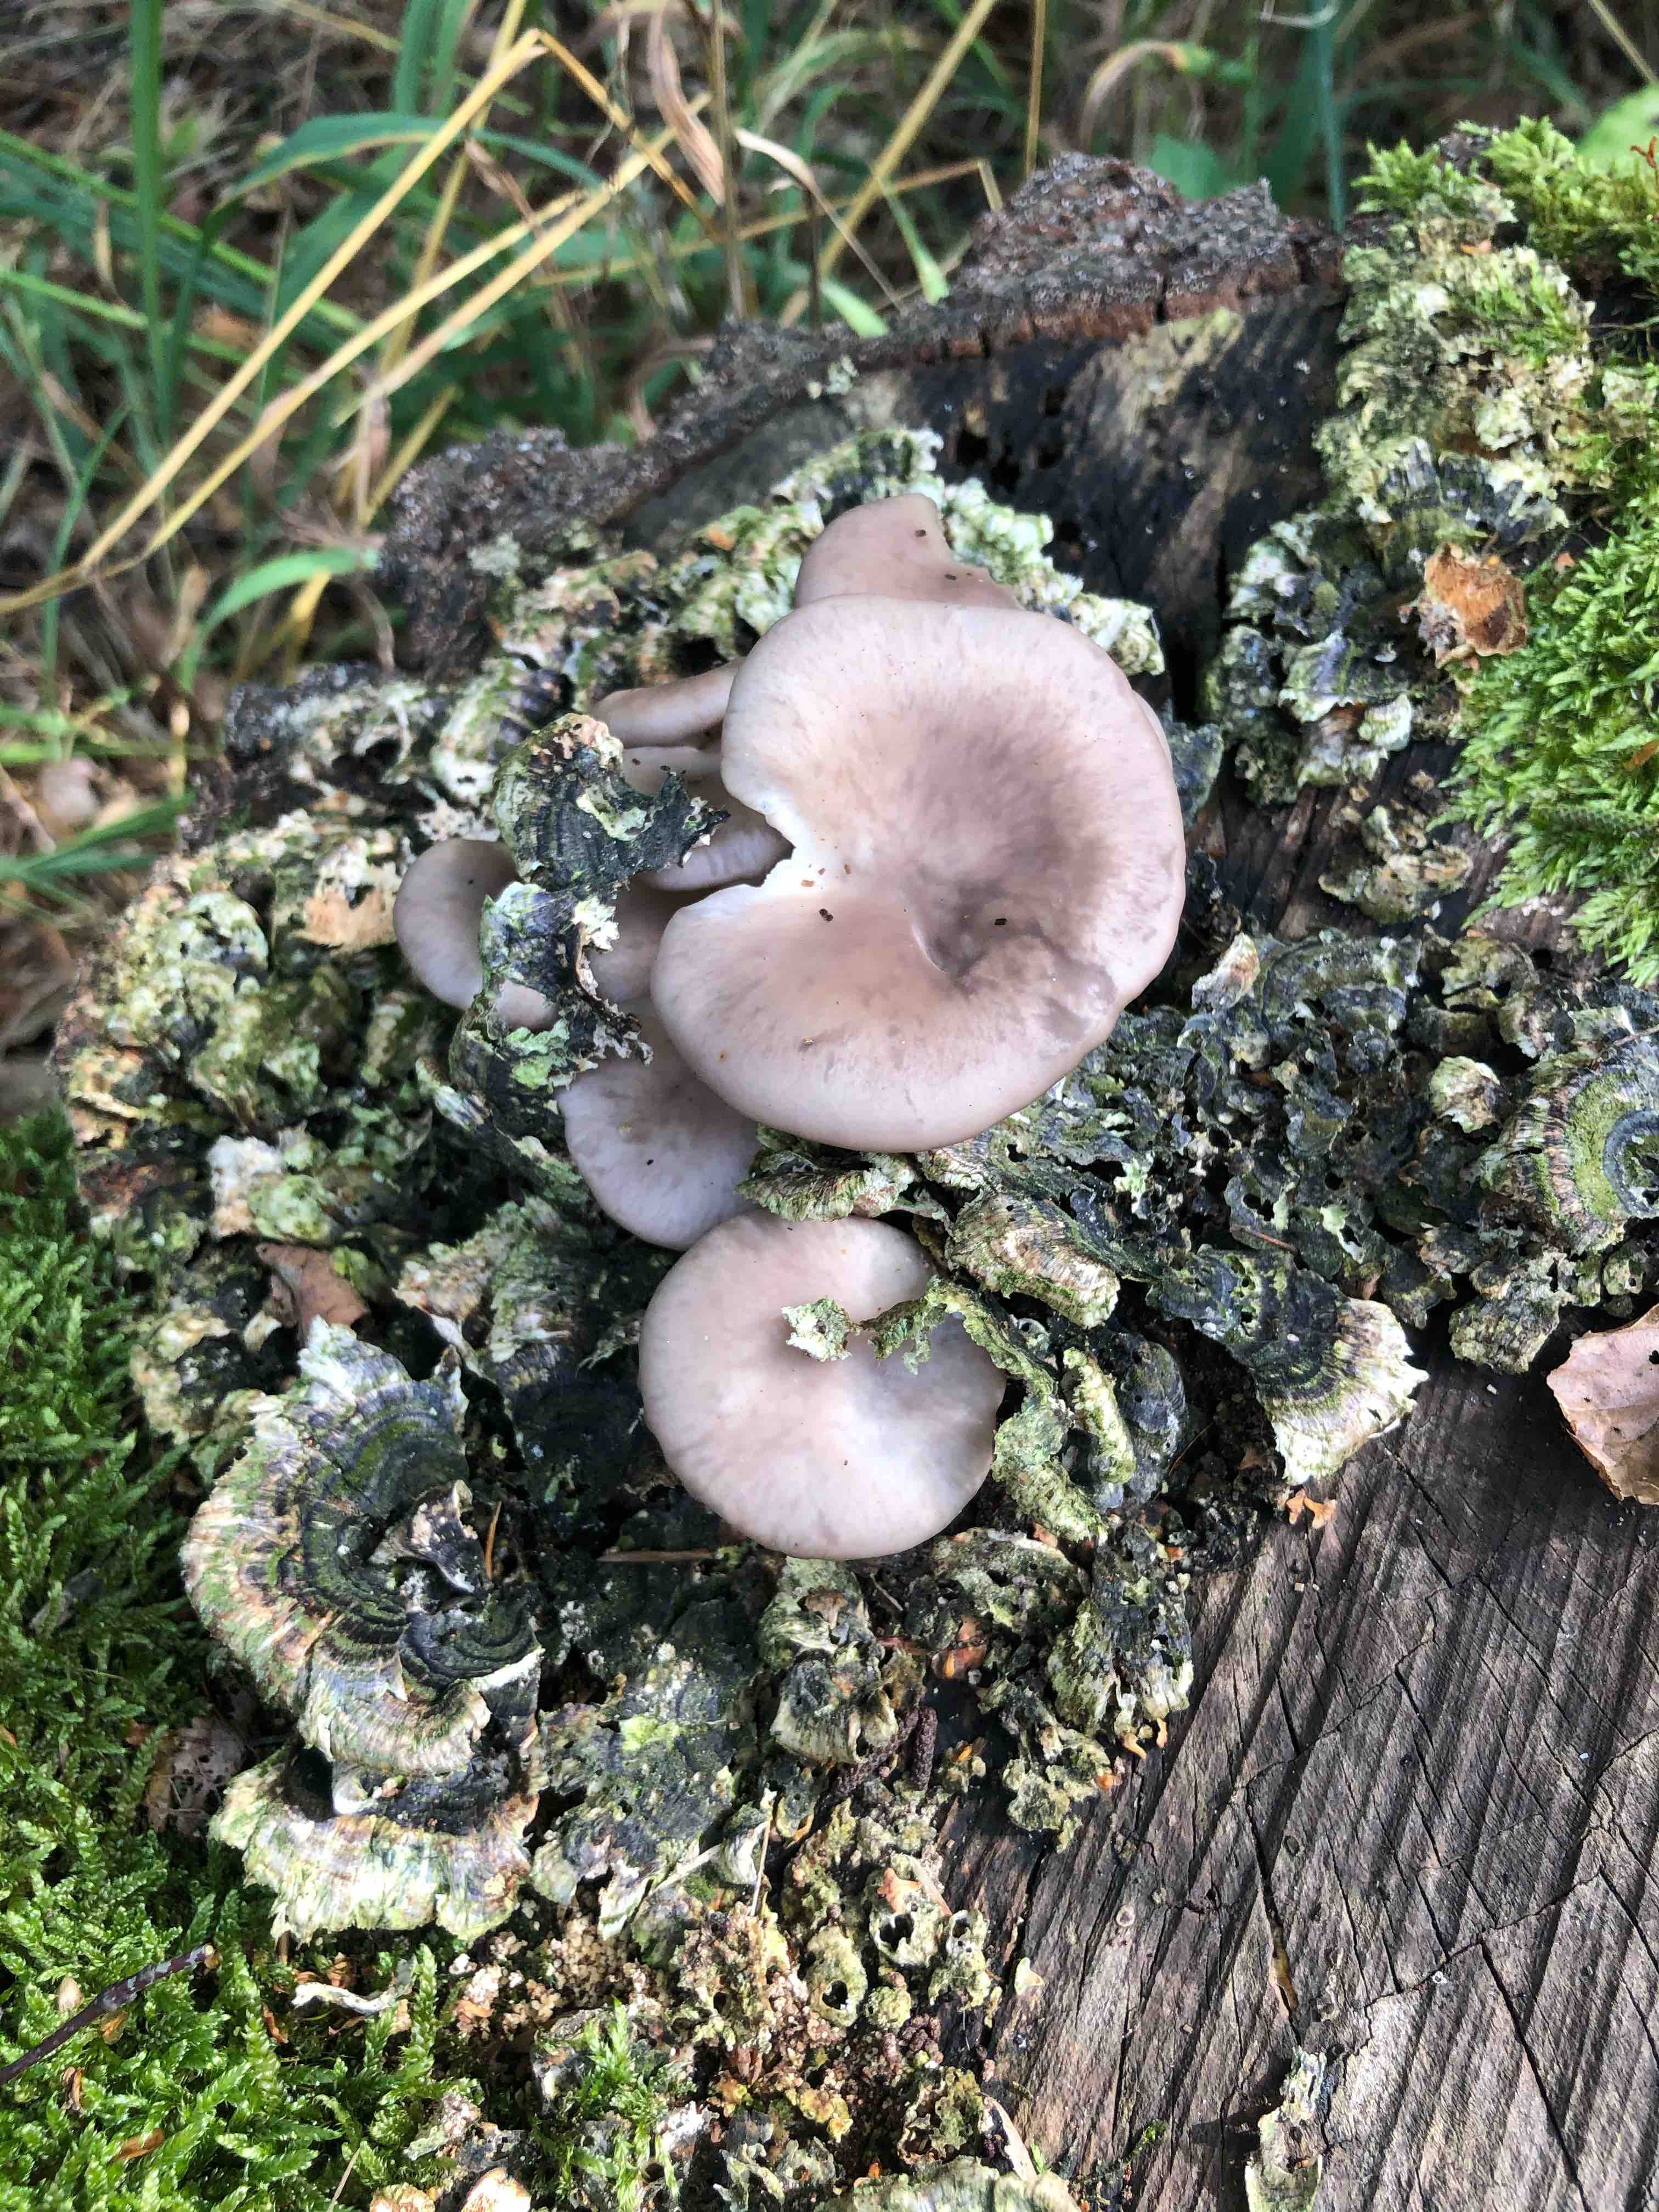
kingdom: Fungi
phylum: Basidiomycota
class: Agaricomycetes
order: Agaricales
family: Pleurotaceae
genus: Pleurotus
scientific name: Pleurotus pulmonarius
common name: sommer-østershat
